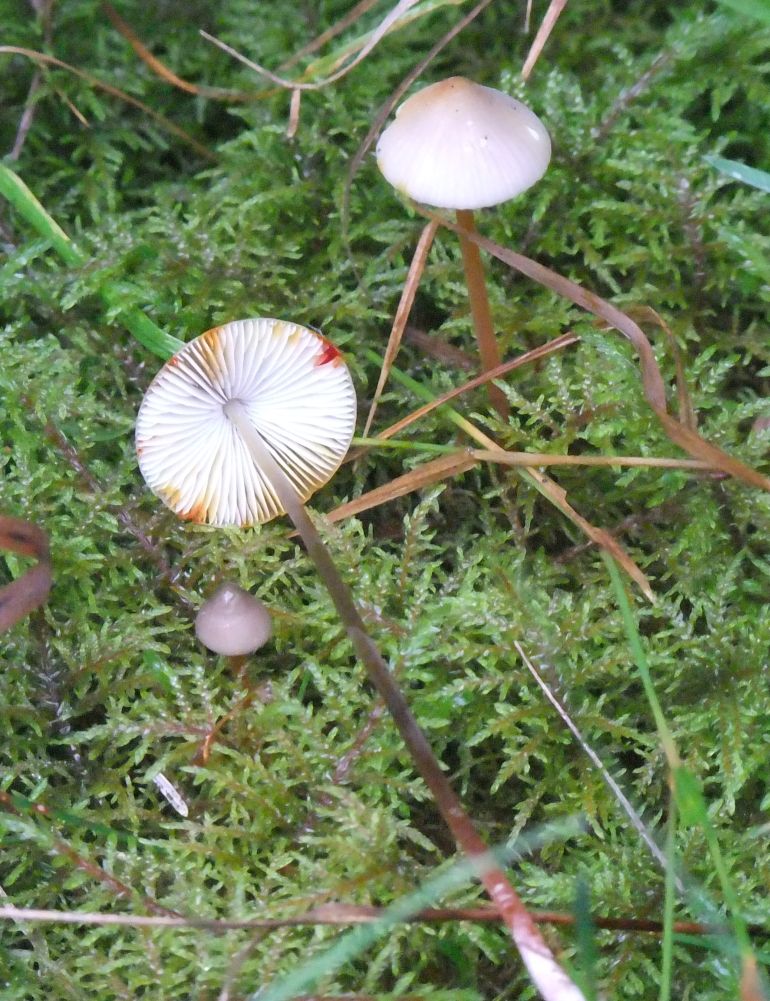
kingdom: Fungi
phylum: Basidiomycota
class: Agaricomycetes
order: Agaricales
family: Mycenaceae
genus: Mycena
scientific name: Mycena crocata
